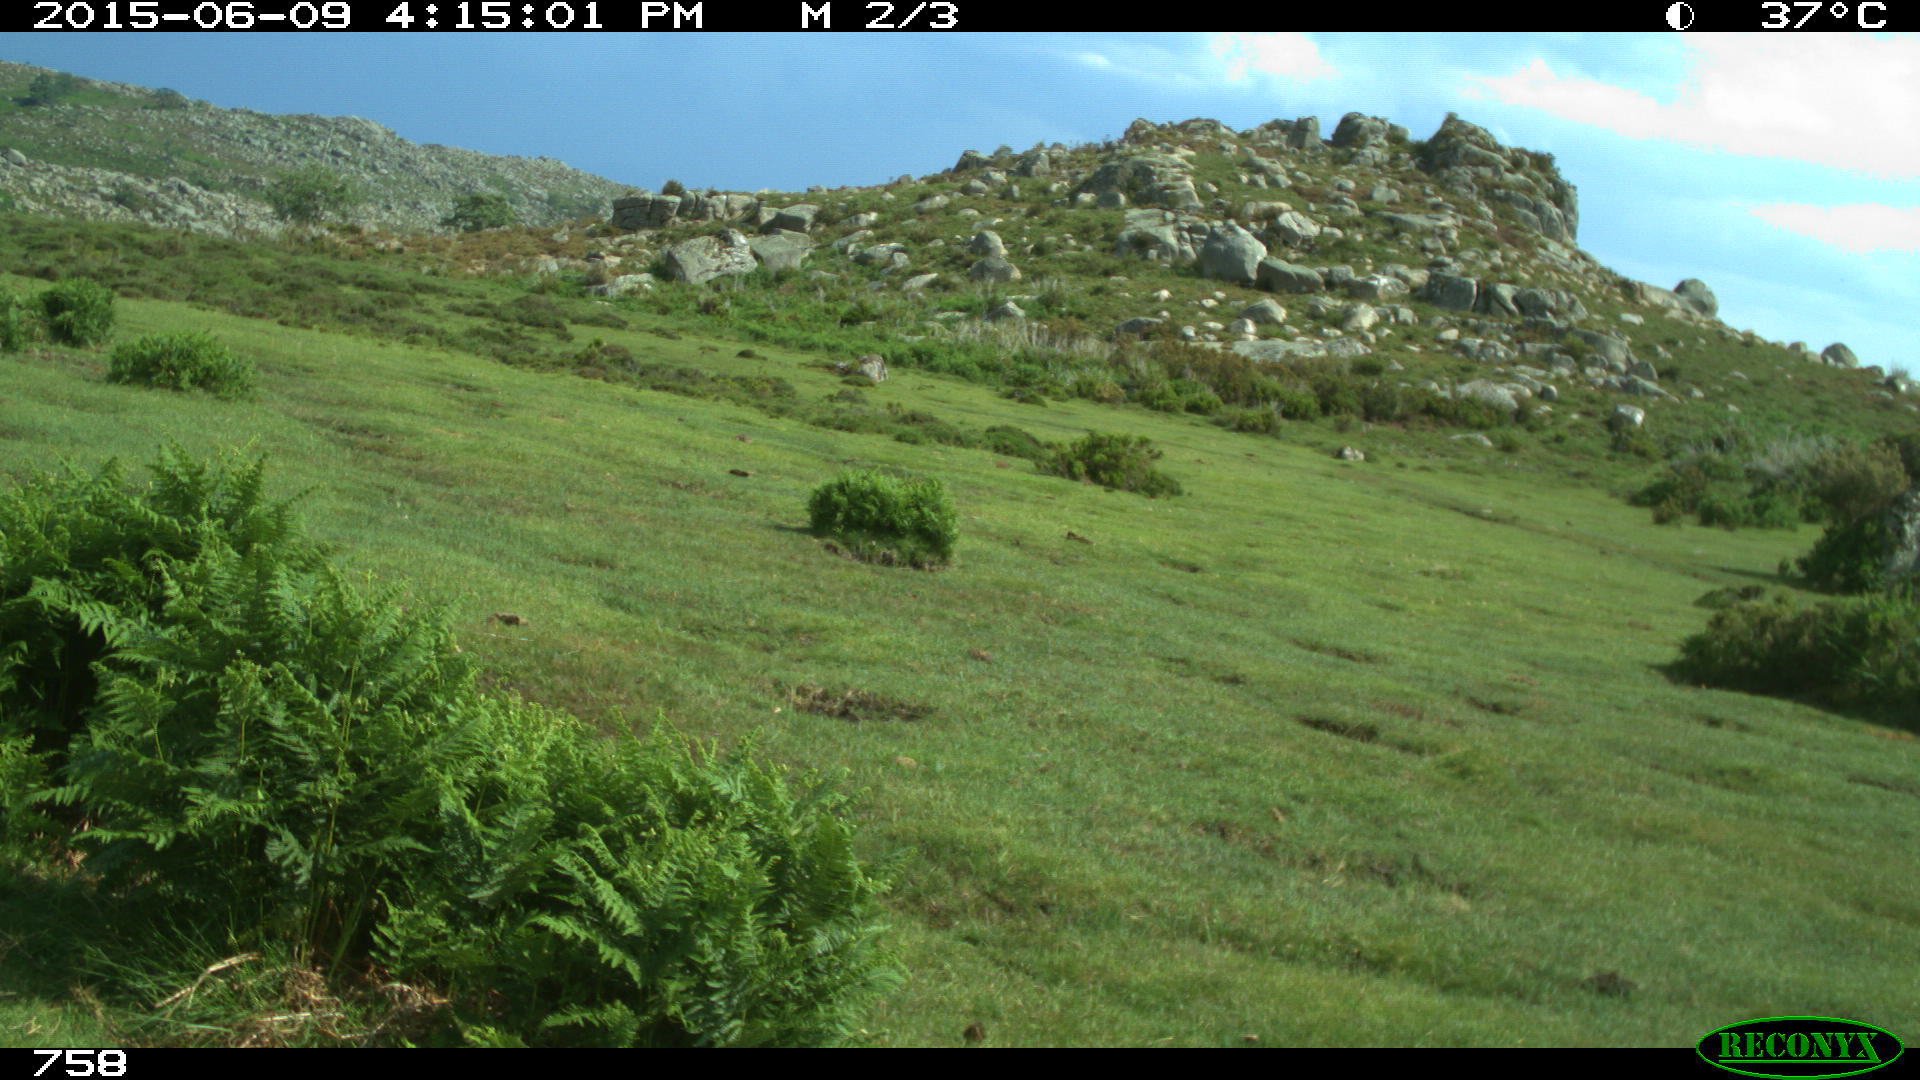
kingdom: Animalia
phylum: Chordata
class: Mammalia
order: Artiodactyla
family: Bovidae
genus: Bos
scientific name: Bos taurus
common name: Domesticated cattle
